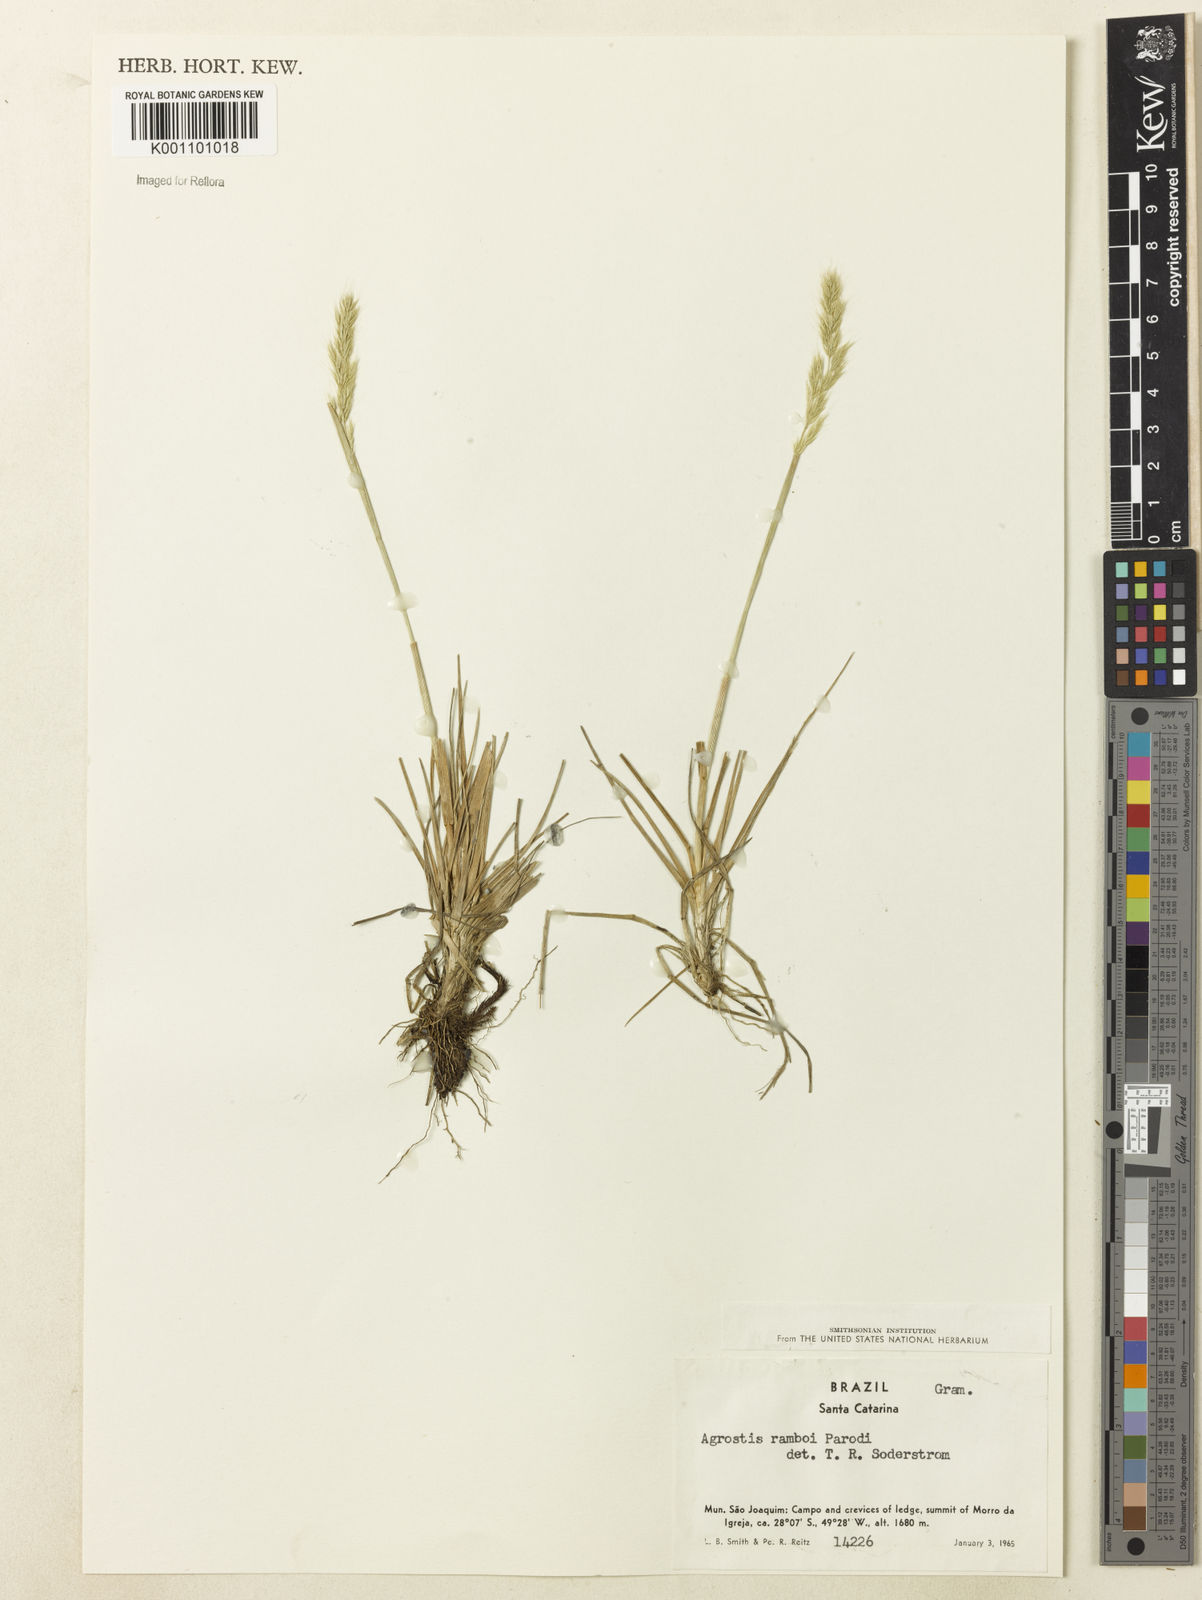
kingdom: Plantae
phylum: Tracheophyta
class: Liliopsida
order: Poales
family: Poaceae
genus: Agrostis
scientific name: Agrostis hygrometrica
